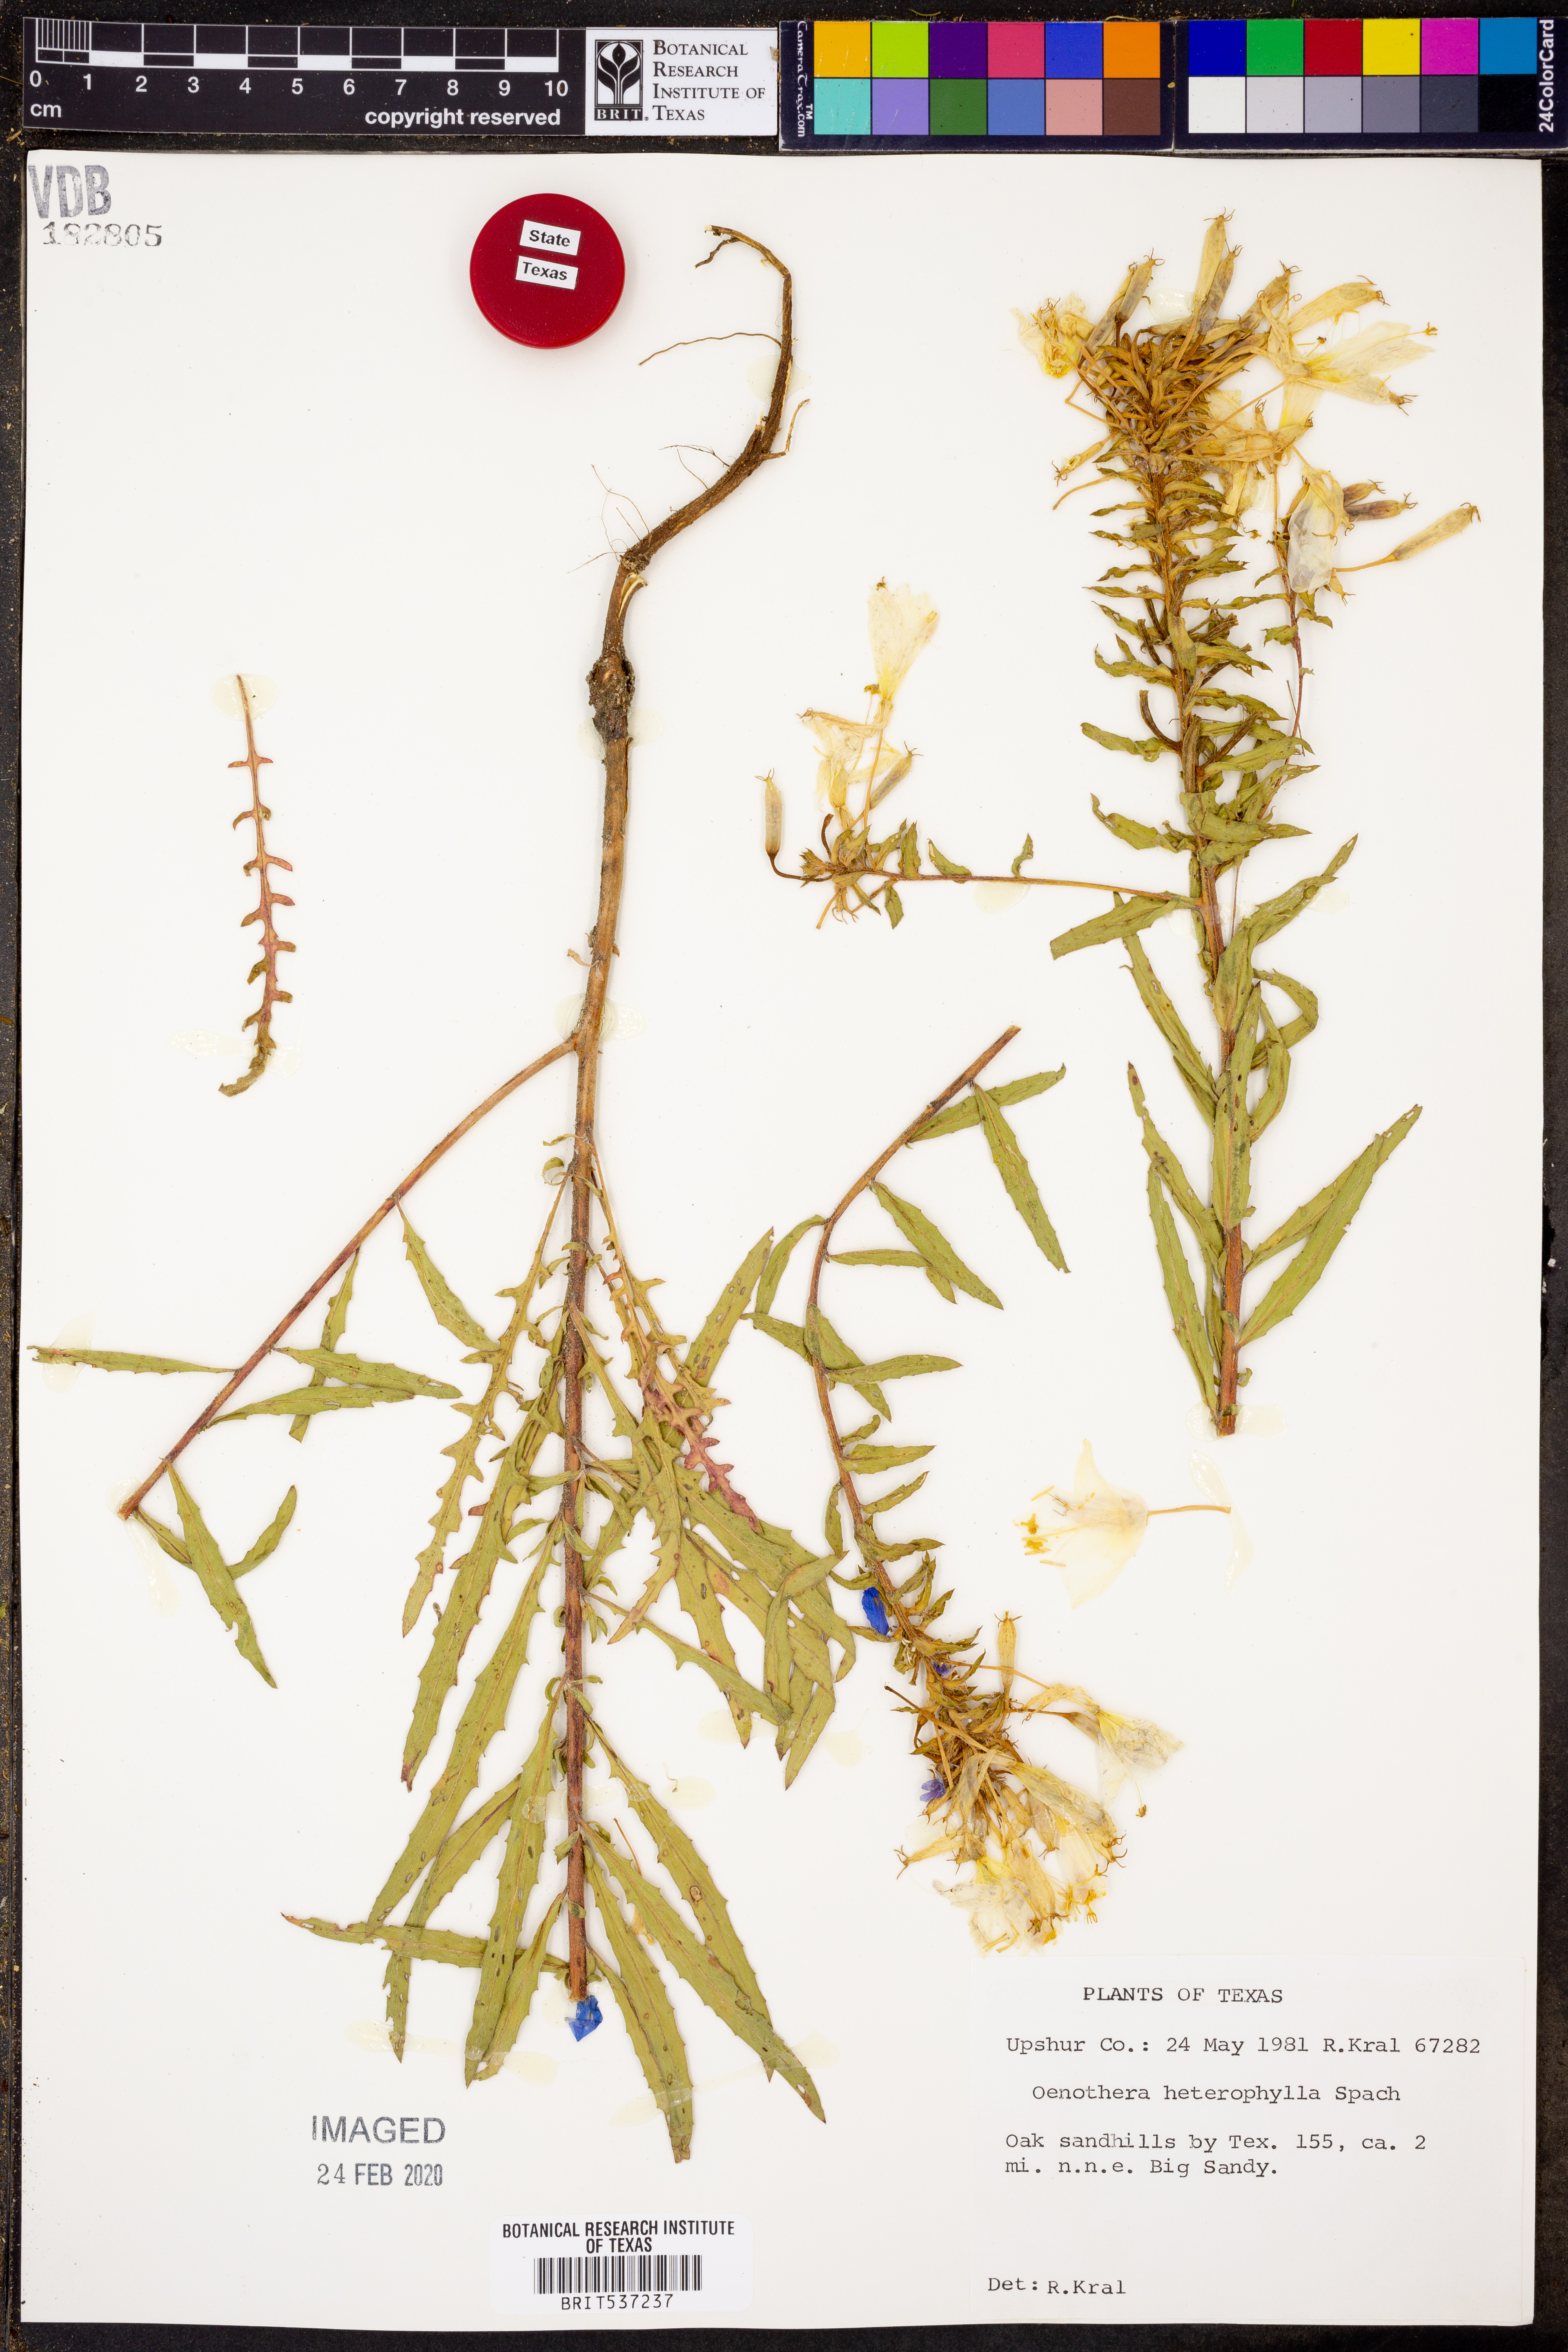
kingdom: Plantae
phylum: Tracheophyta
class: Magnoliopsida
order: Myrtales
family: Onagraceae
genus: Camissonia
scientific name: Camissonia dentata
